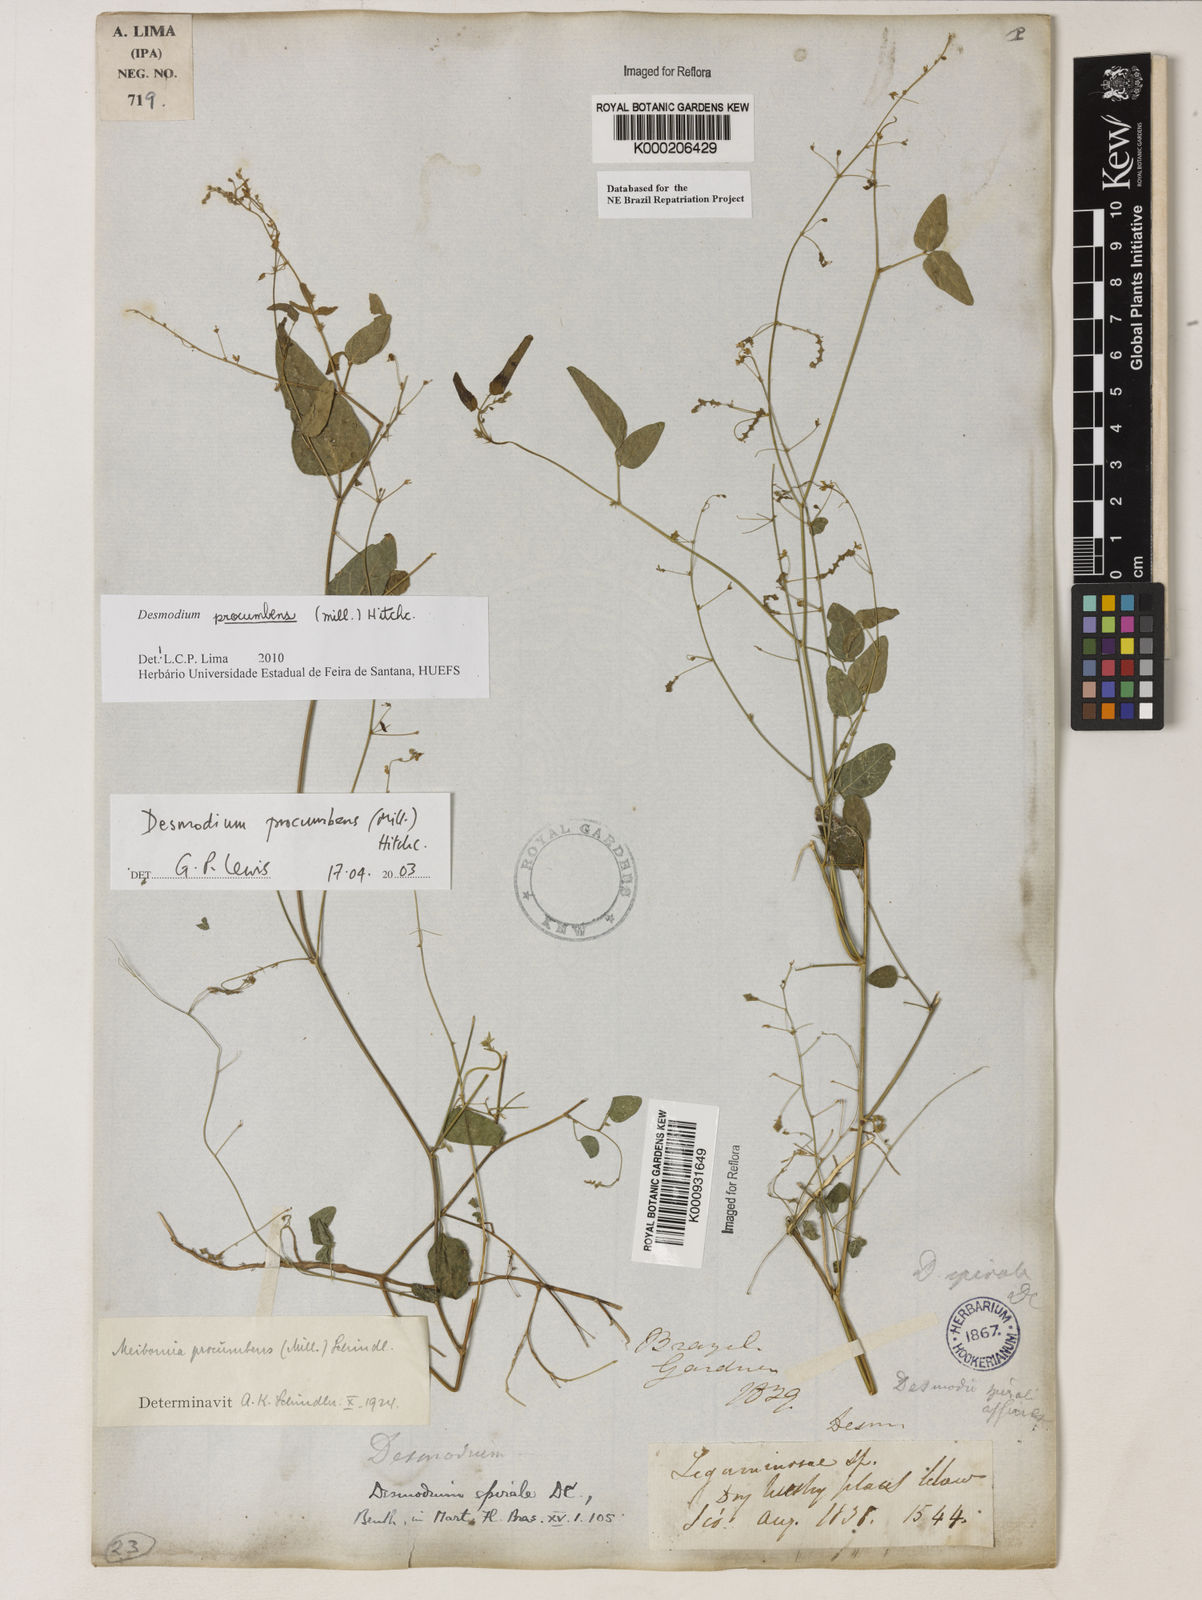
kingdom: Plantae
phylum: Tracheophyta
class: Magnoliopsida
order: Fabales
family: Fabaceae
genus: Desmodium
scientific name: Desmodium procumbens
